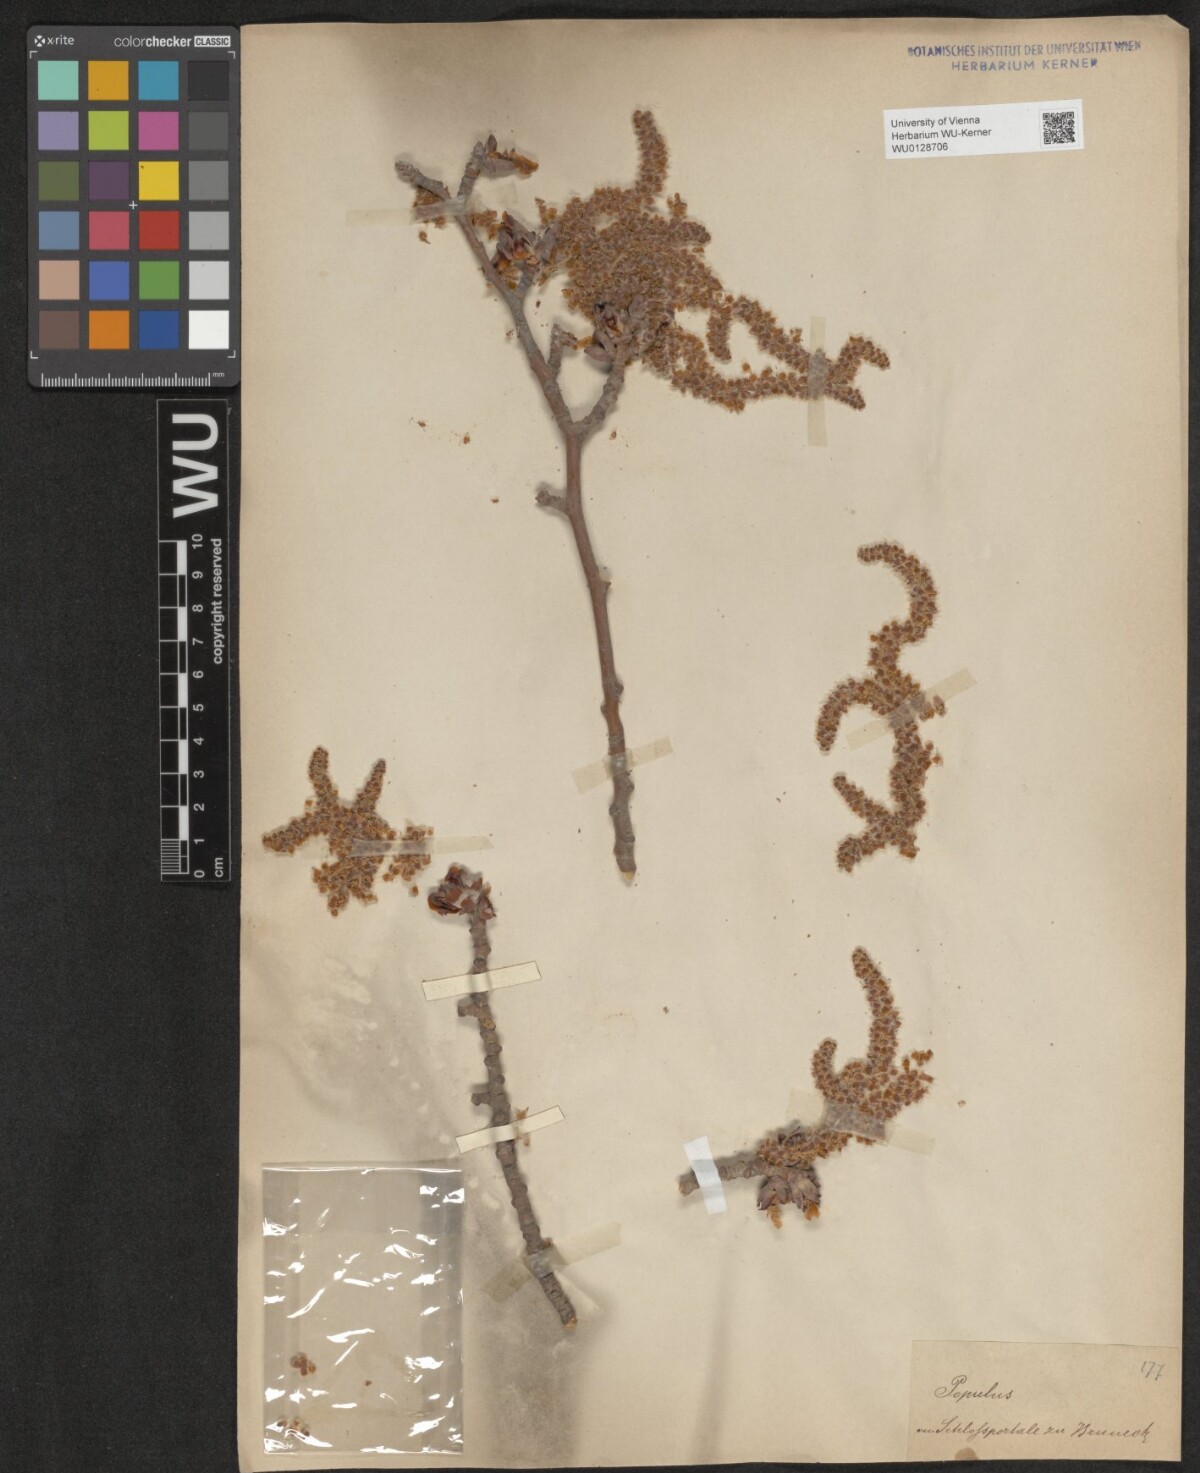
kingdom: Plantae
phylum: Tracheophyta
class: Magnoliopsida
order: Malpighiales
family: Salicaceae
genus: Populus
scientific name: Populus
